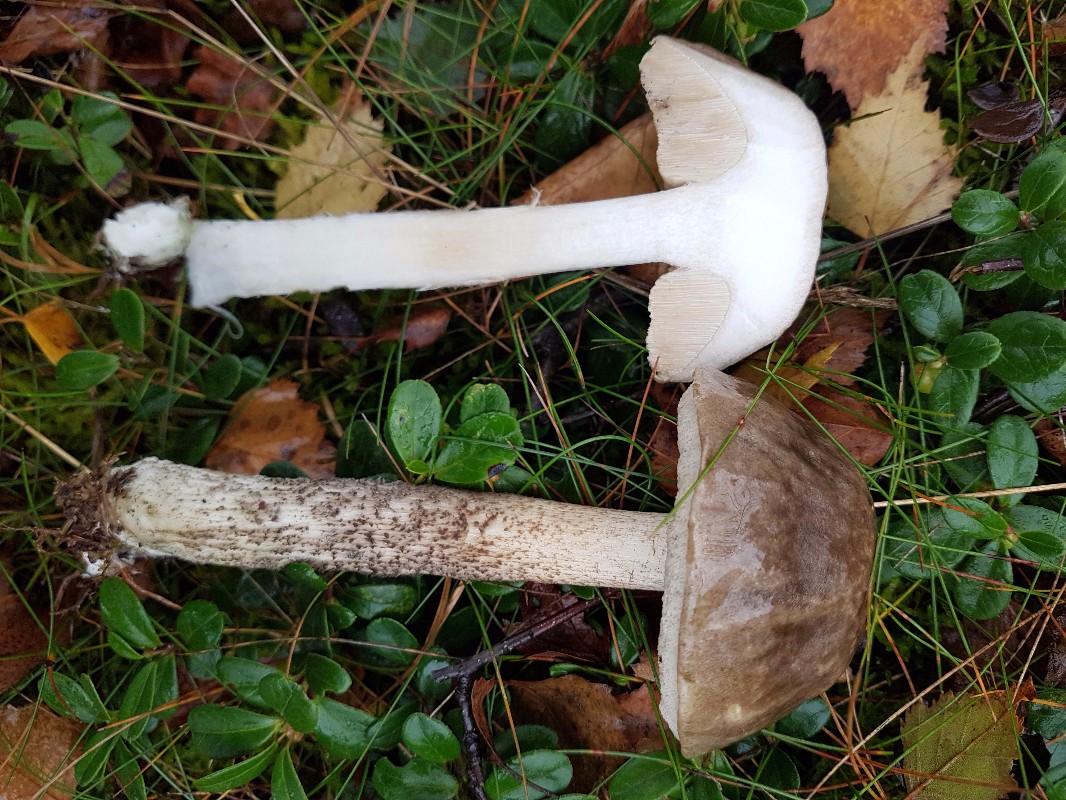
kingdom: Fungi
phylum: Basidiomycota
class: Agaricomycetes
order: Boletales
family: Boletaceae
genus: Leccinum
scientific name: Leccinum variicolor
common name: flammet skælrørhat
